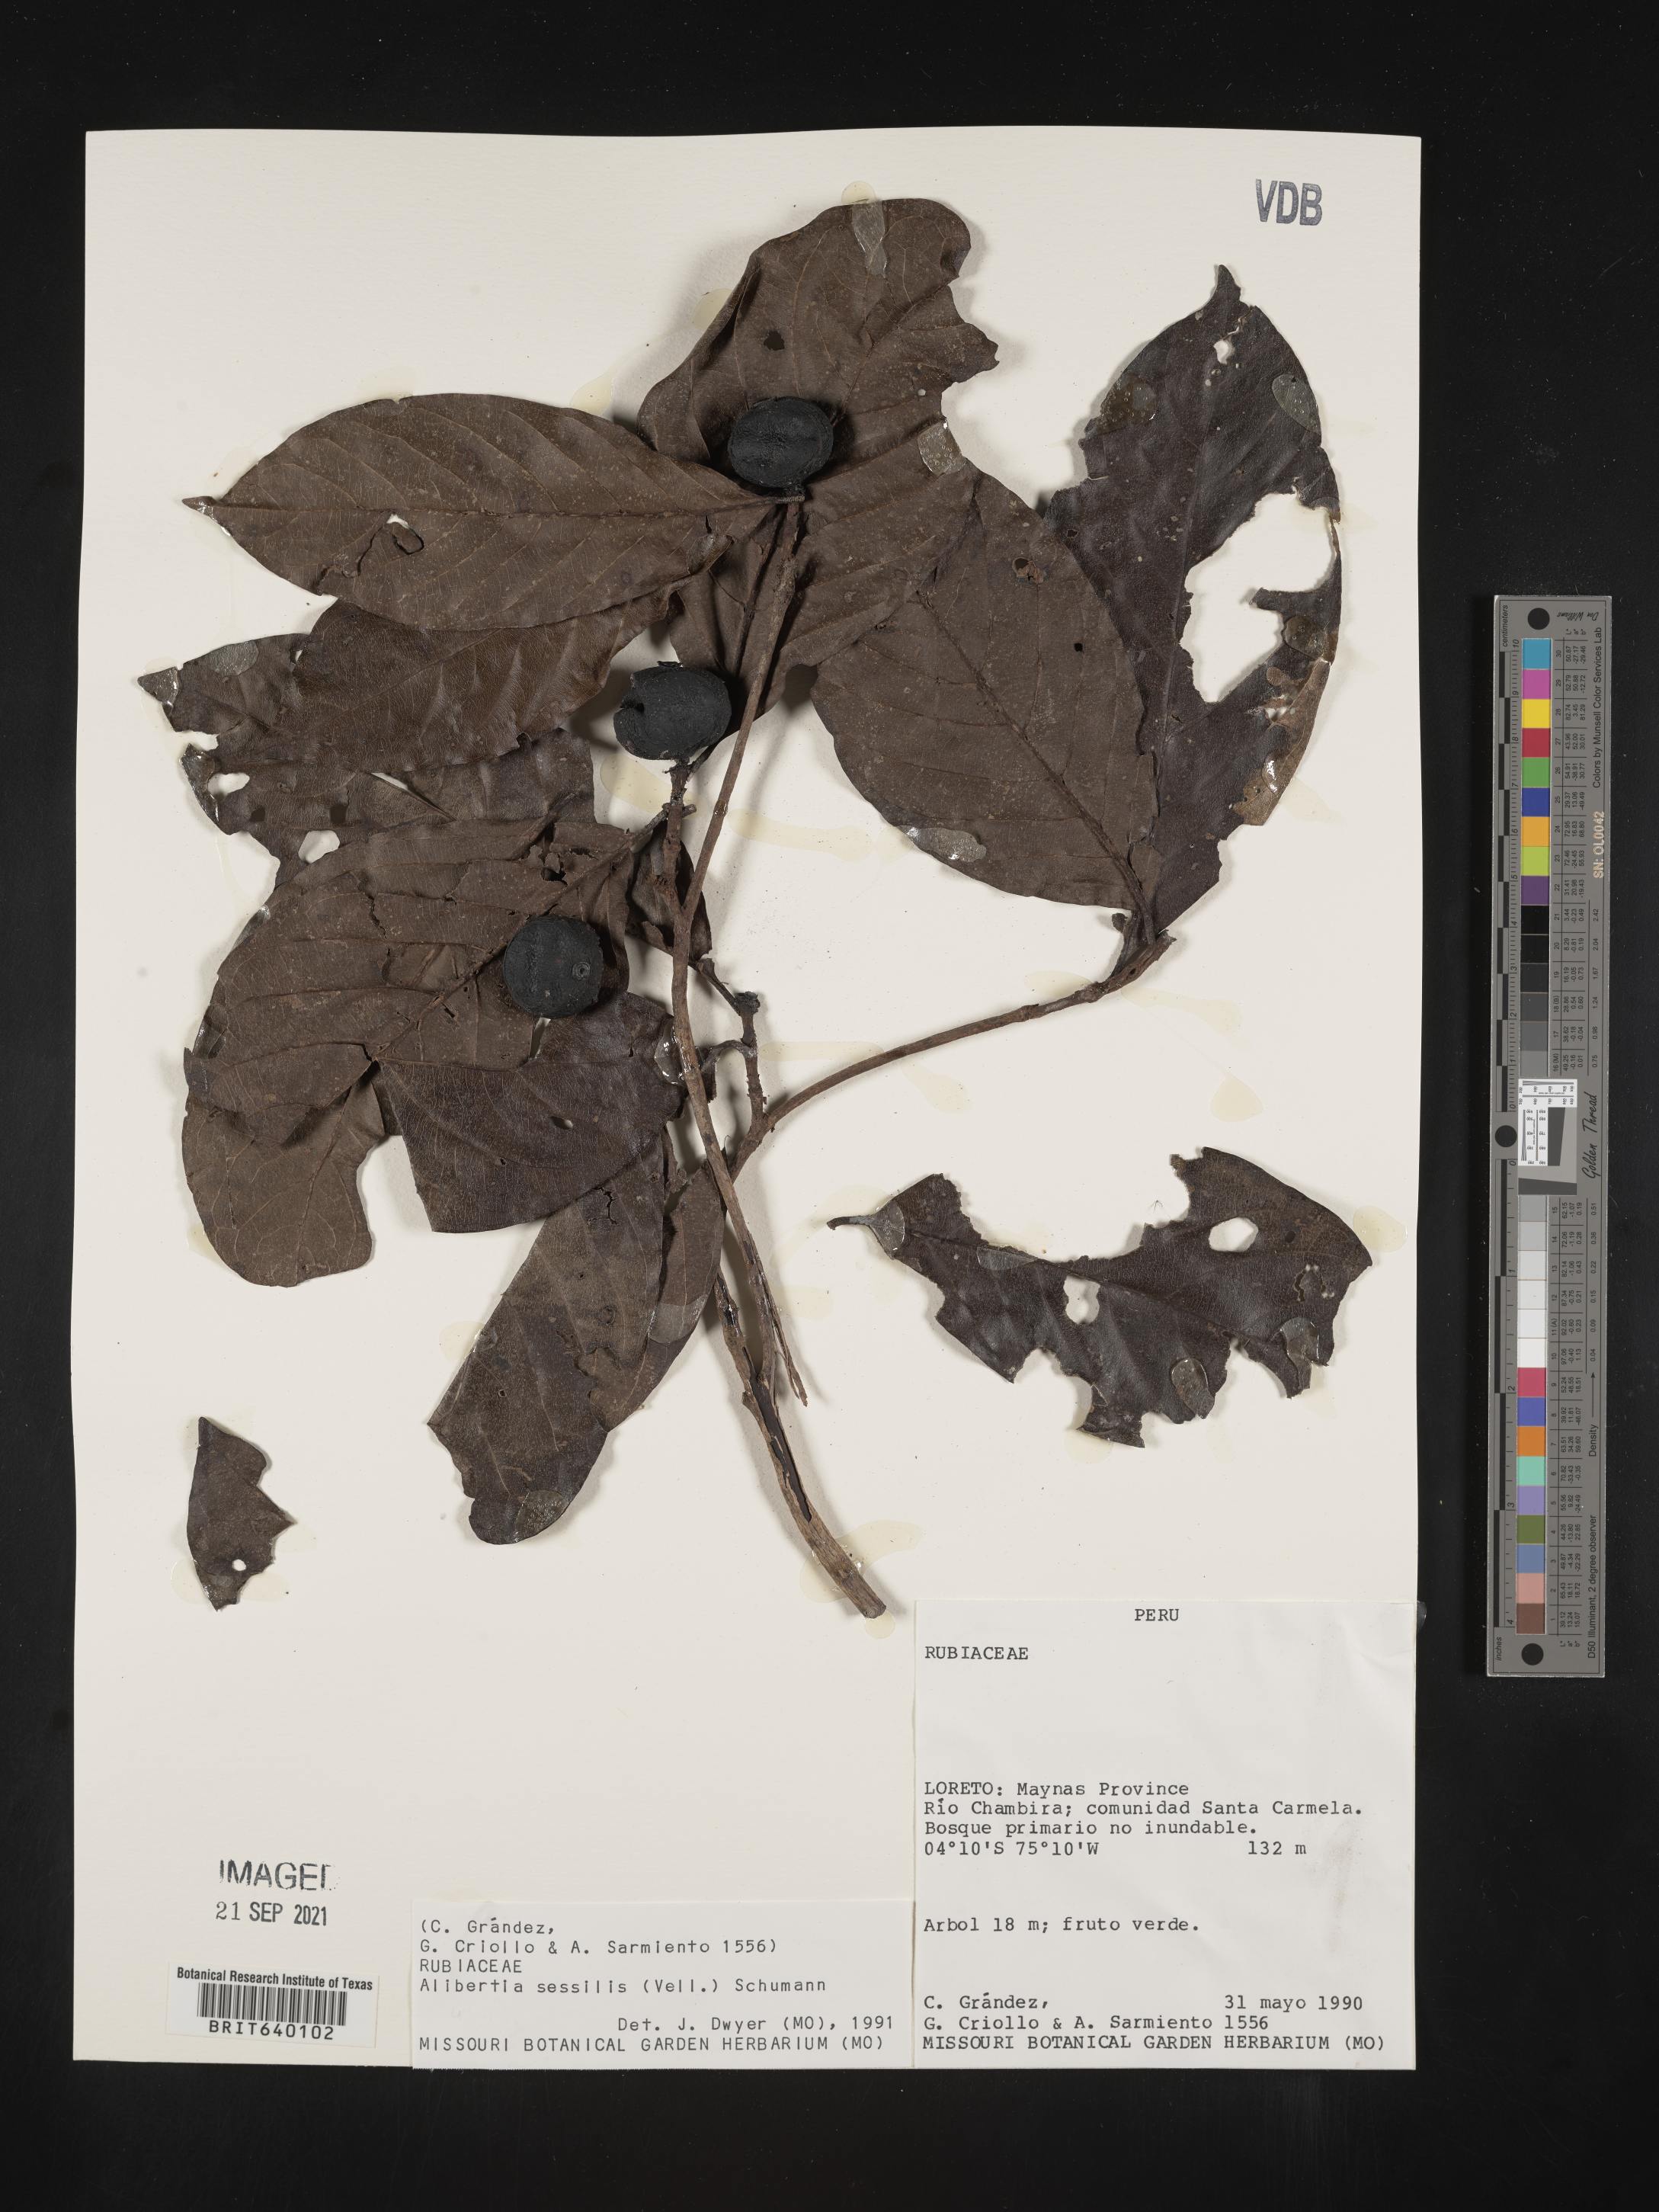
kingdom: Plantae
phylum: Tracheophyta
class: Magnoliopsida
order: Gentianales
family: Rubiaceae
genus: Alibertia
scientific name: Alibertia
